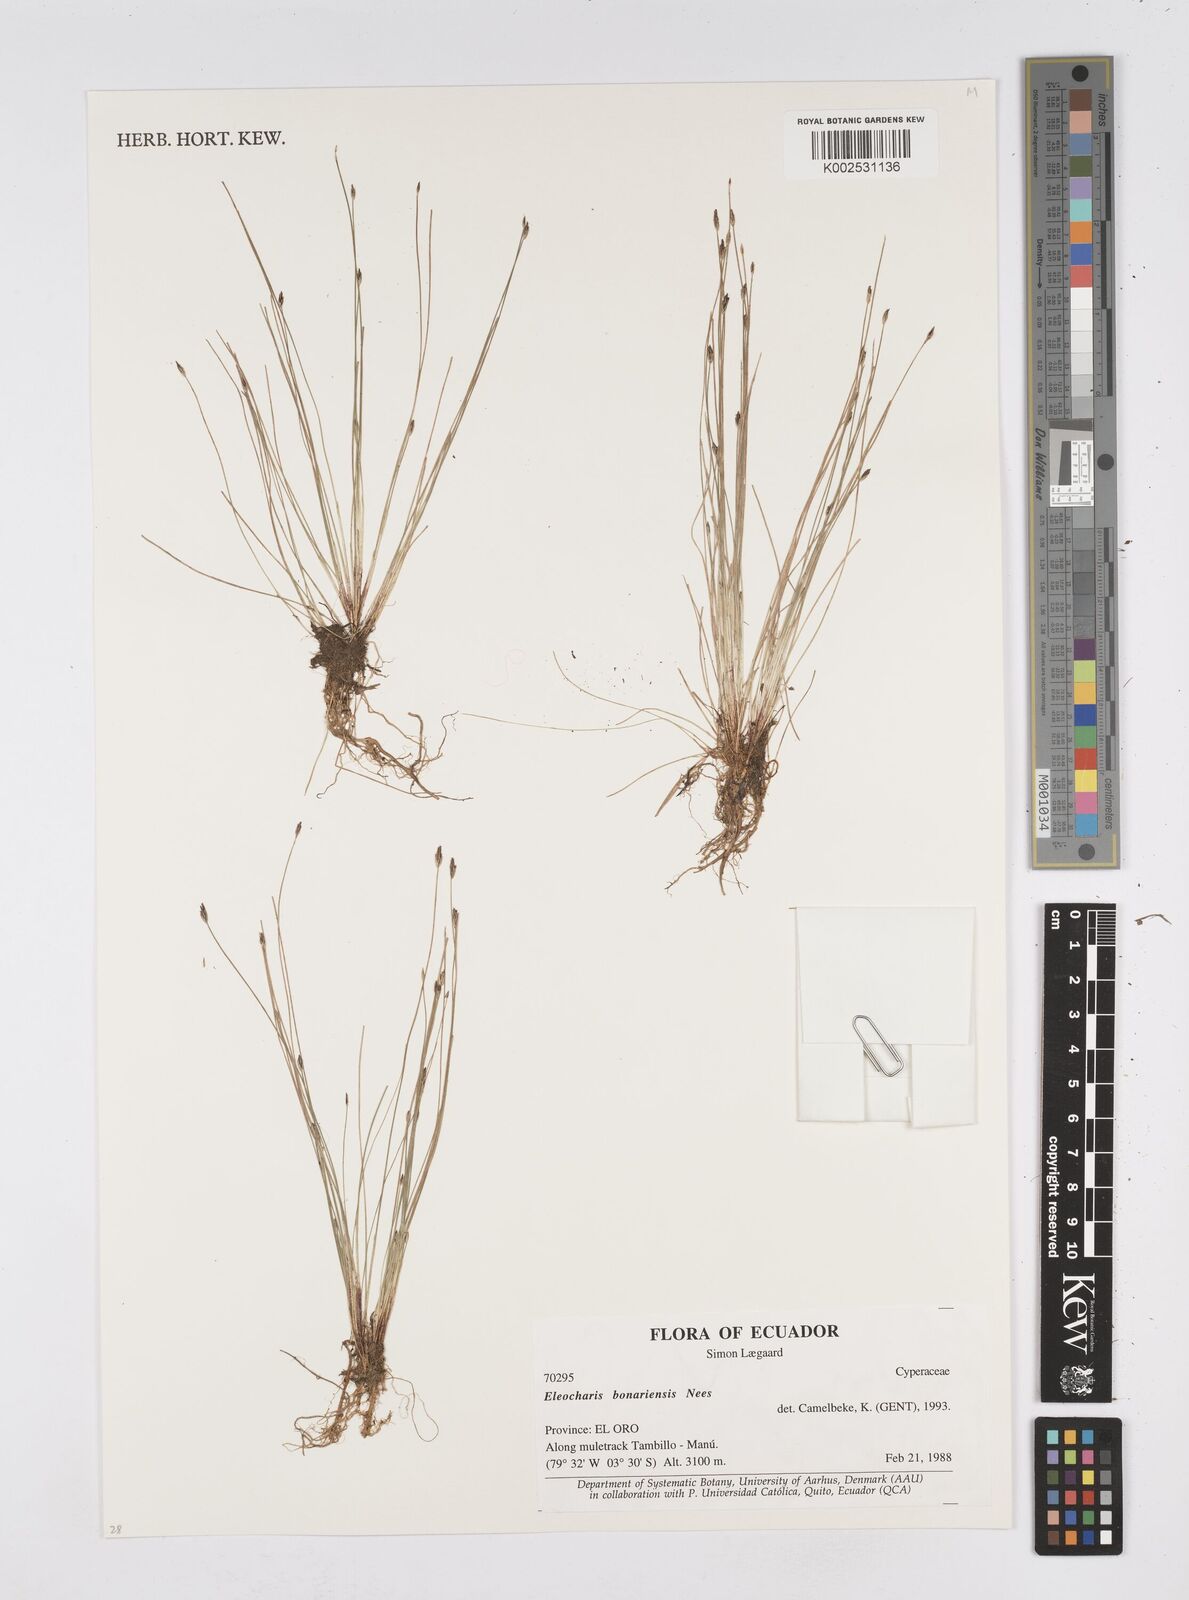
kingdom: Plantae
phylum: Tracheophyta
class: Liliopsida
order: Poales
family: Cyperaceae
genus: Eleocharis
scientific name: Eleocharis bonariensis
